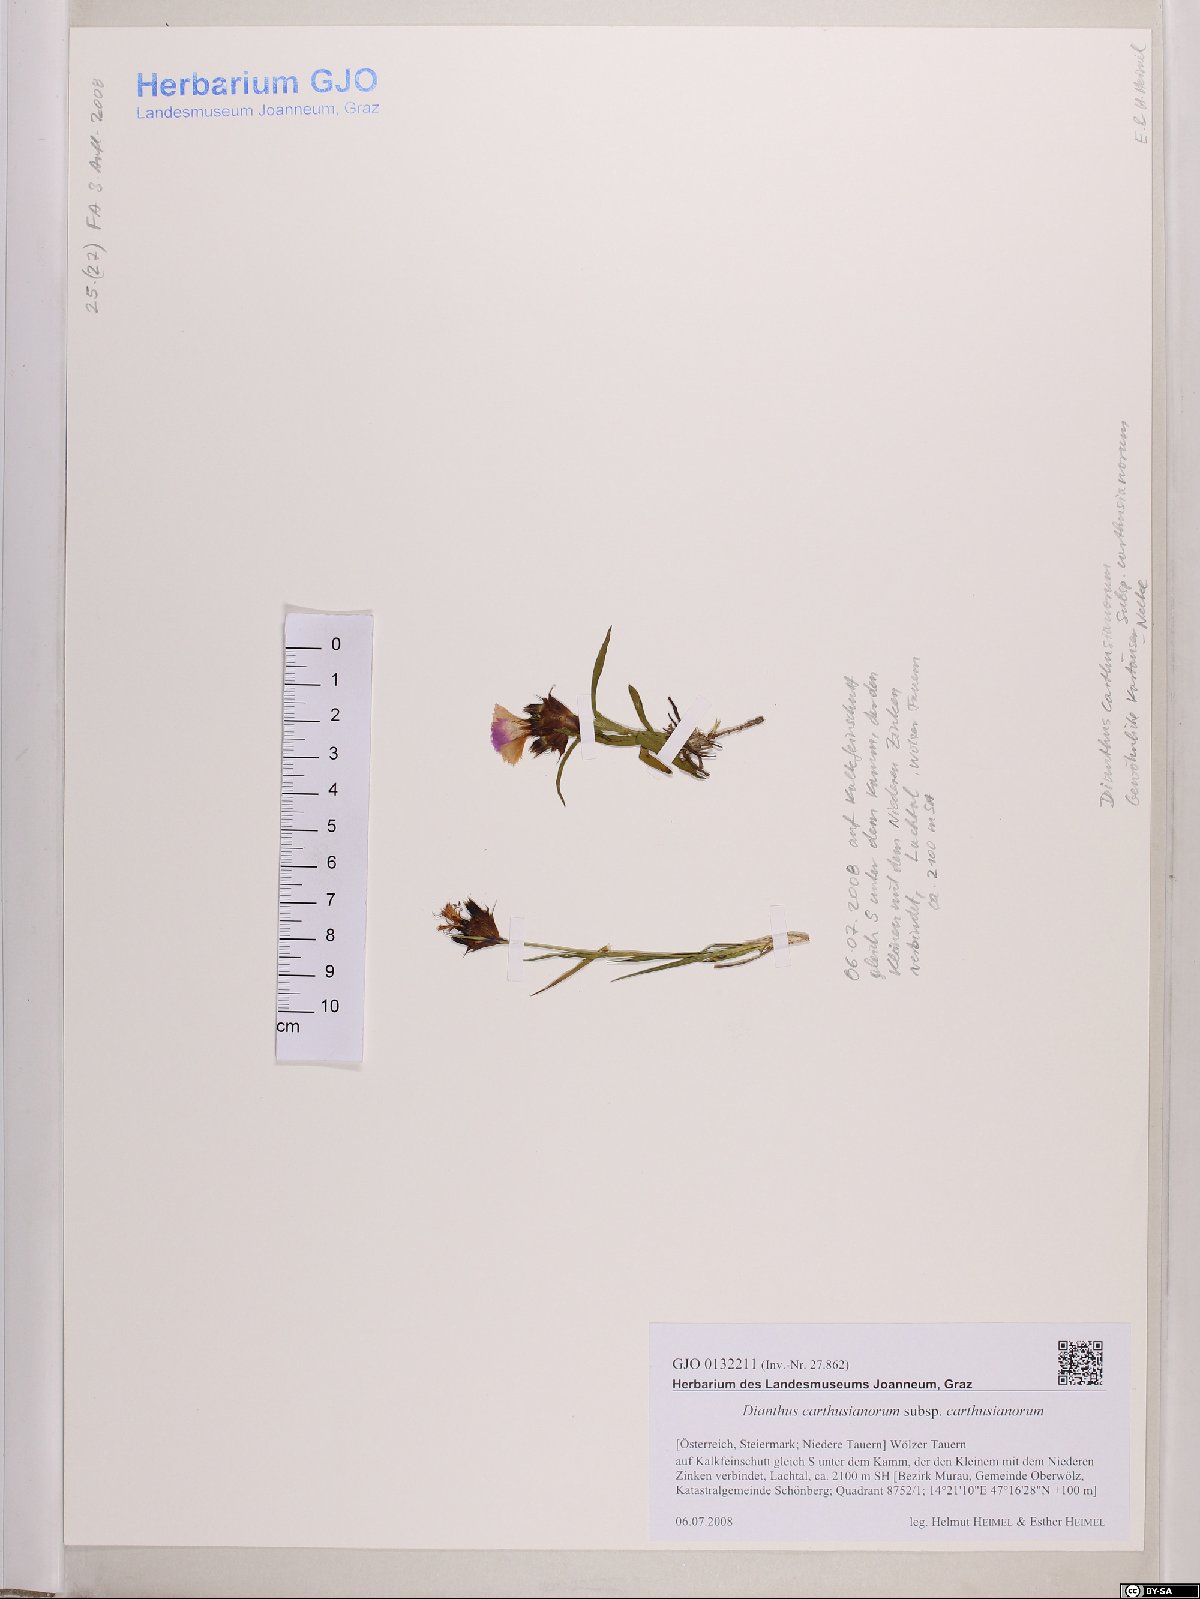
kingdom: Plantae
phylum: Tracheophyta
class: Magnoliopsida
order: Caryophyllales
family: Caryophyllaceae
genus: Dianthus
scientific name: Dianthus carthusianorum
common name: Carthusian pink
